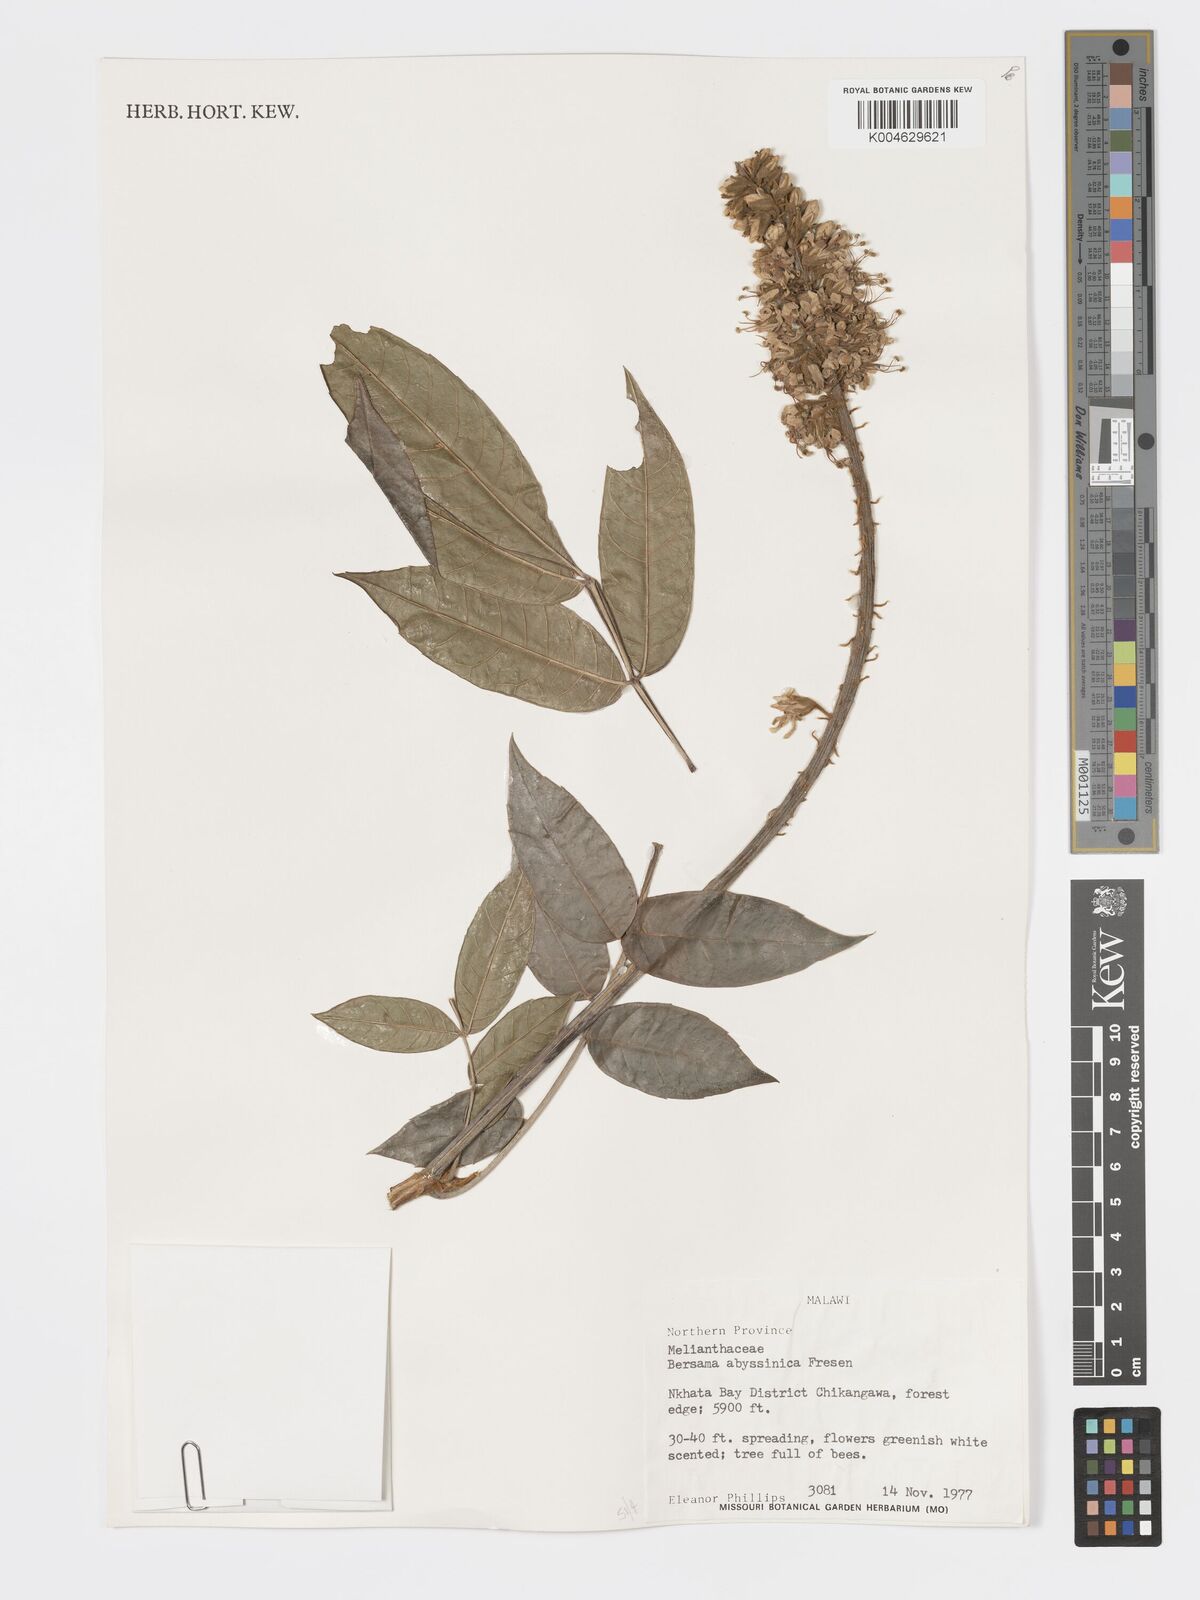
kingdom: Plantae
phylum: Tracheophyta
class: Magnoliopsida
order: Geraniales
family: Melianthaceae
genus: Bersama
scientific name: Bersama abyssinica
